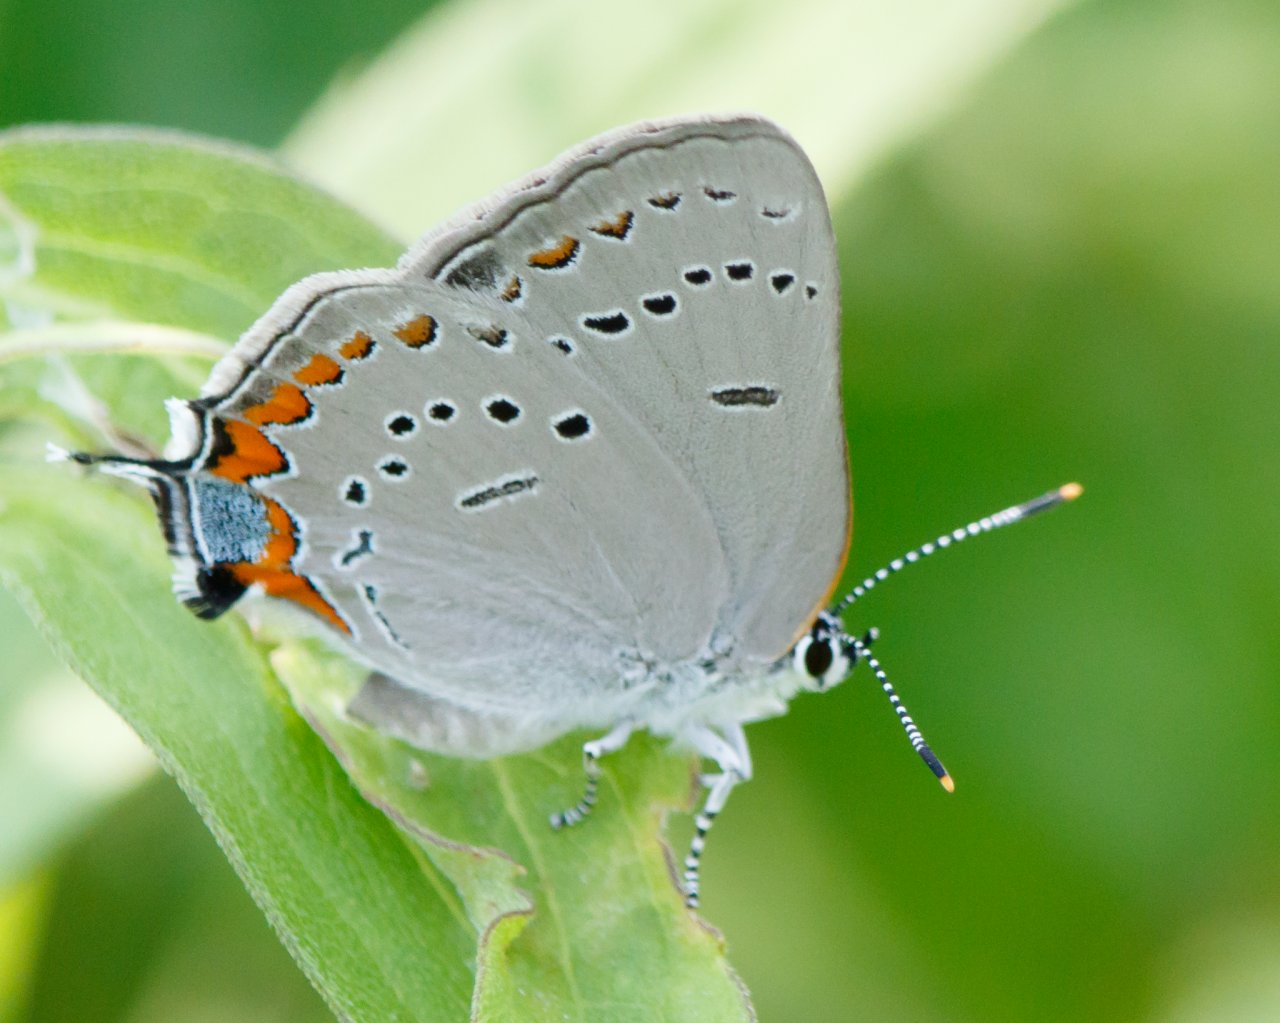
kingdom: Animalia
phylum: Arthropoda
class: Insecta
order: Lepidoptera
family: Lycaenidae
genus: Strymon
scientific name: Strymon acadica
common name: Acadian Hairstreak
